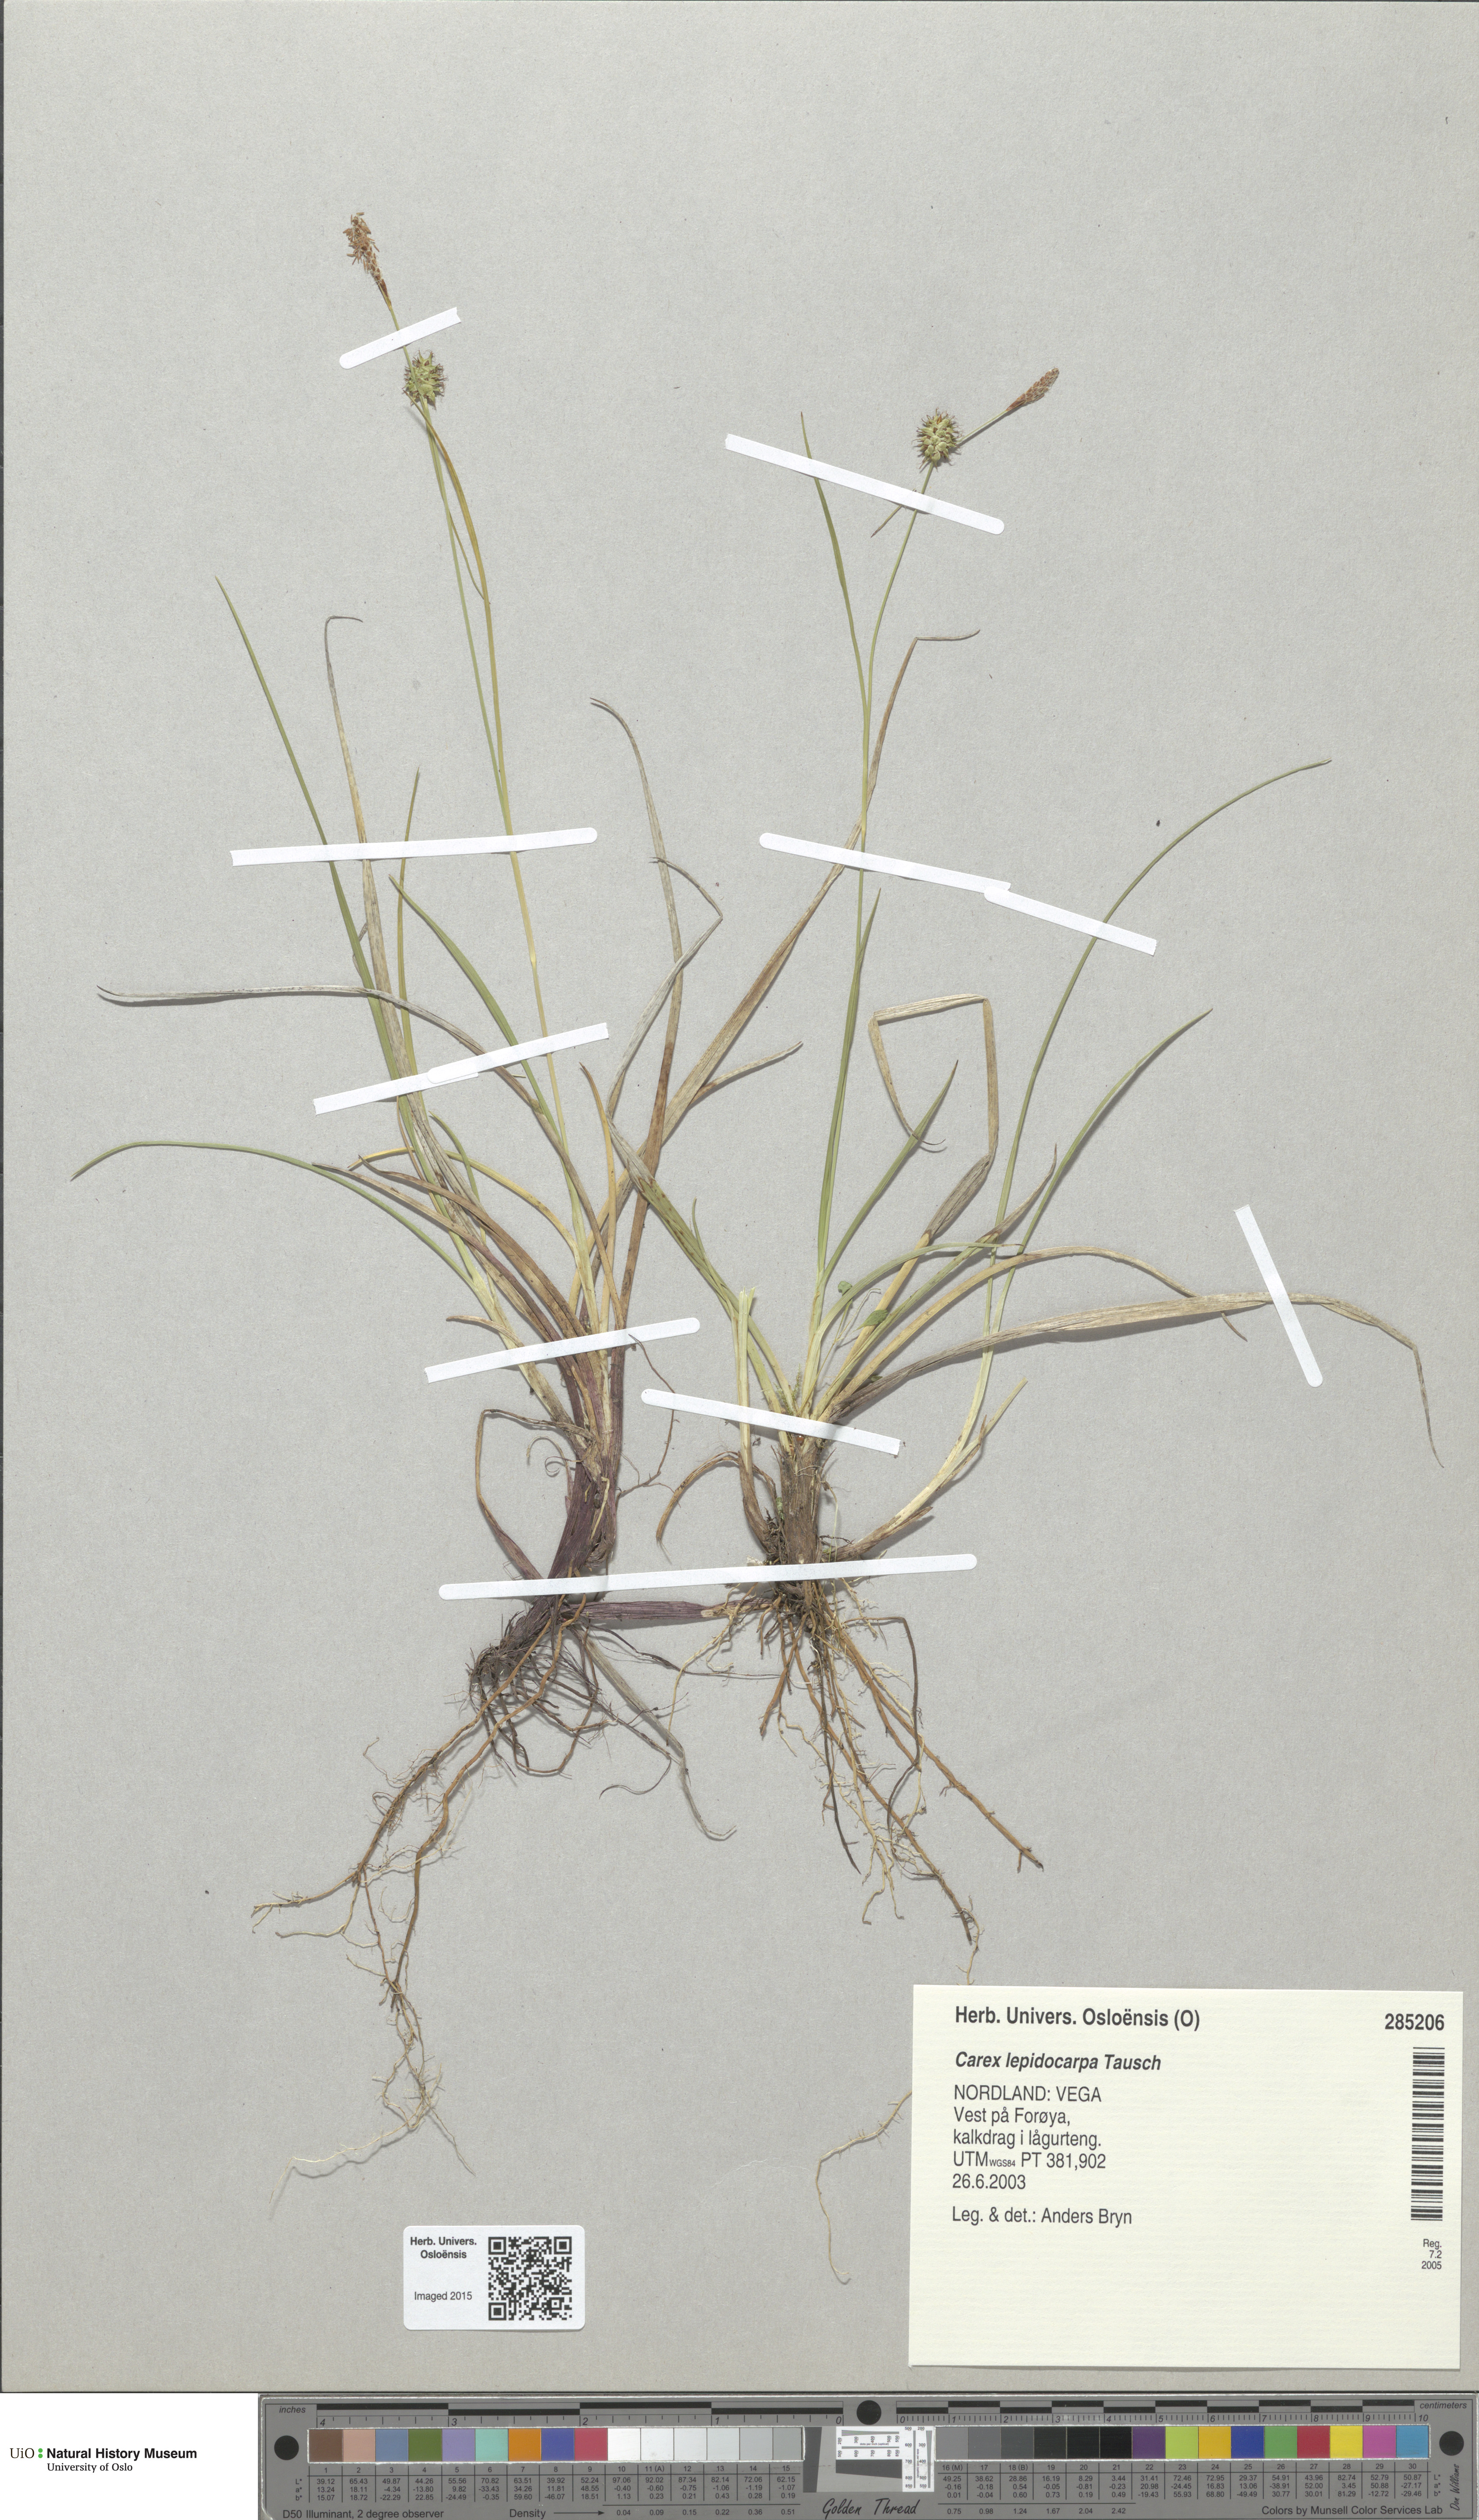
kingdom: Plantae
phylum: Tracheophyta
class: Liliopsida
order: Poales
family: Cyperaceae
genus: Carex
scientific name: Carex lepidocarpa
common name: Long-stalked yellow-sedge
